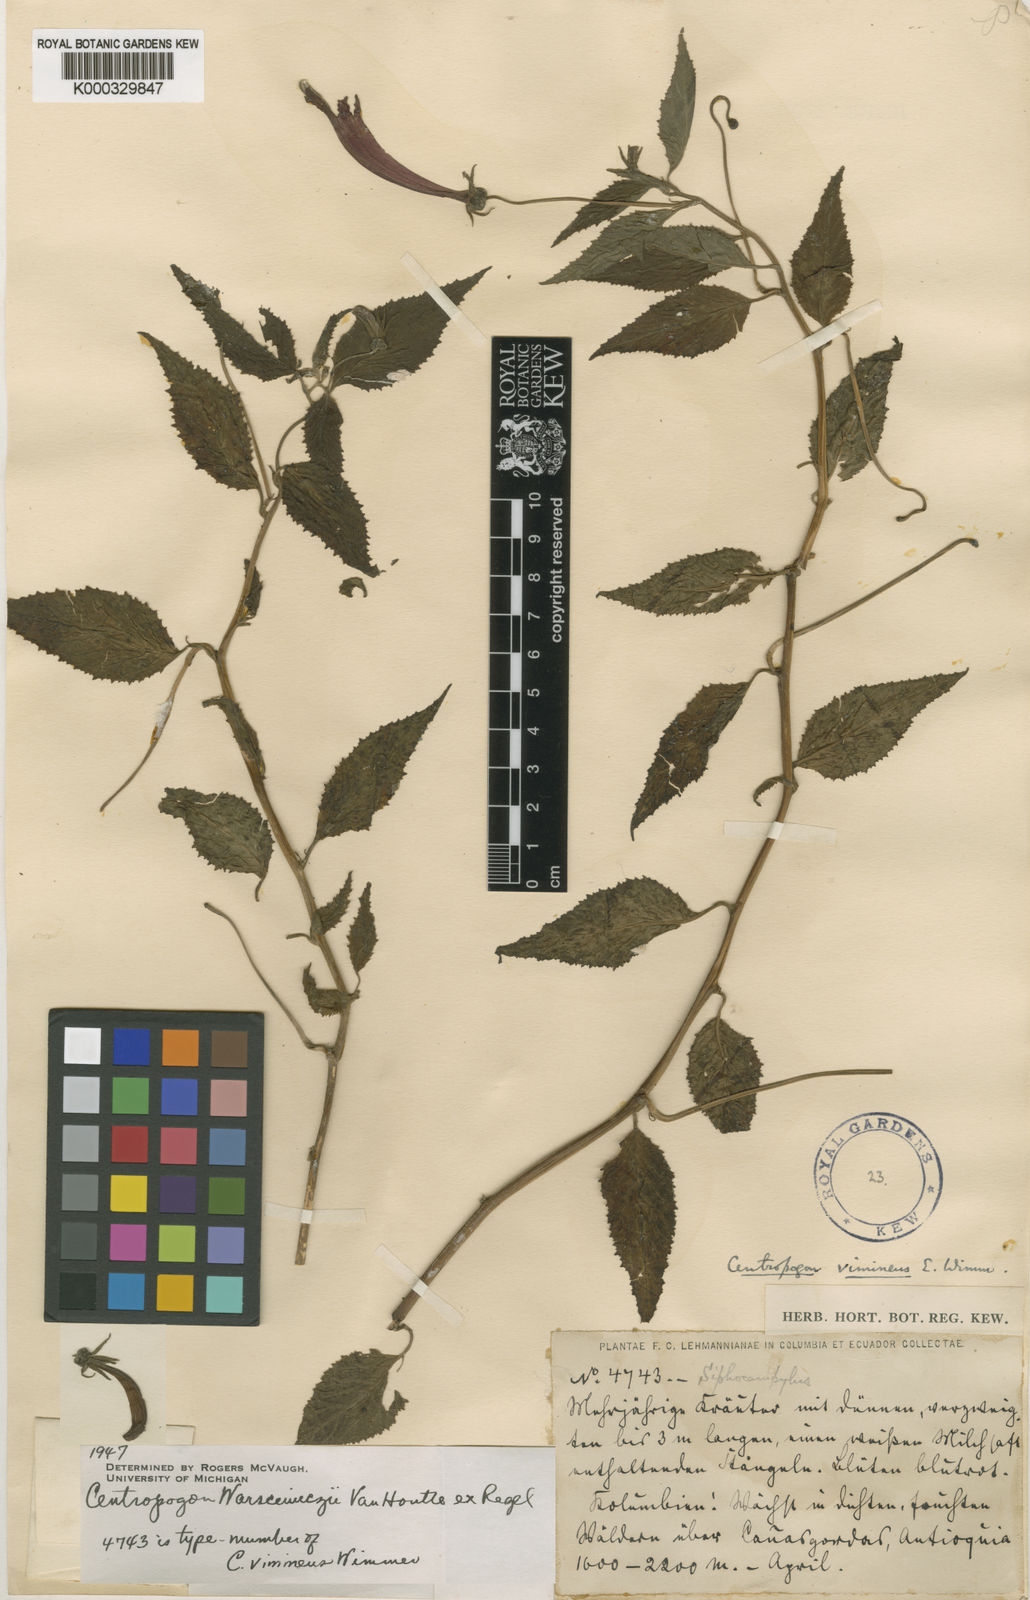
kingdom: Plantae
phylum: Tracheophyta
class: Magnoliopsida
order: Asterales
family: Campanulaceae
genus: Centropogon
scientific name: Centropogon warscewiczii
